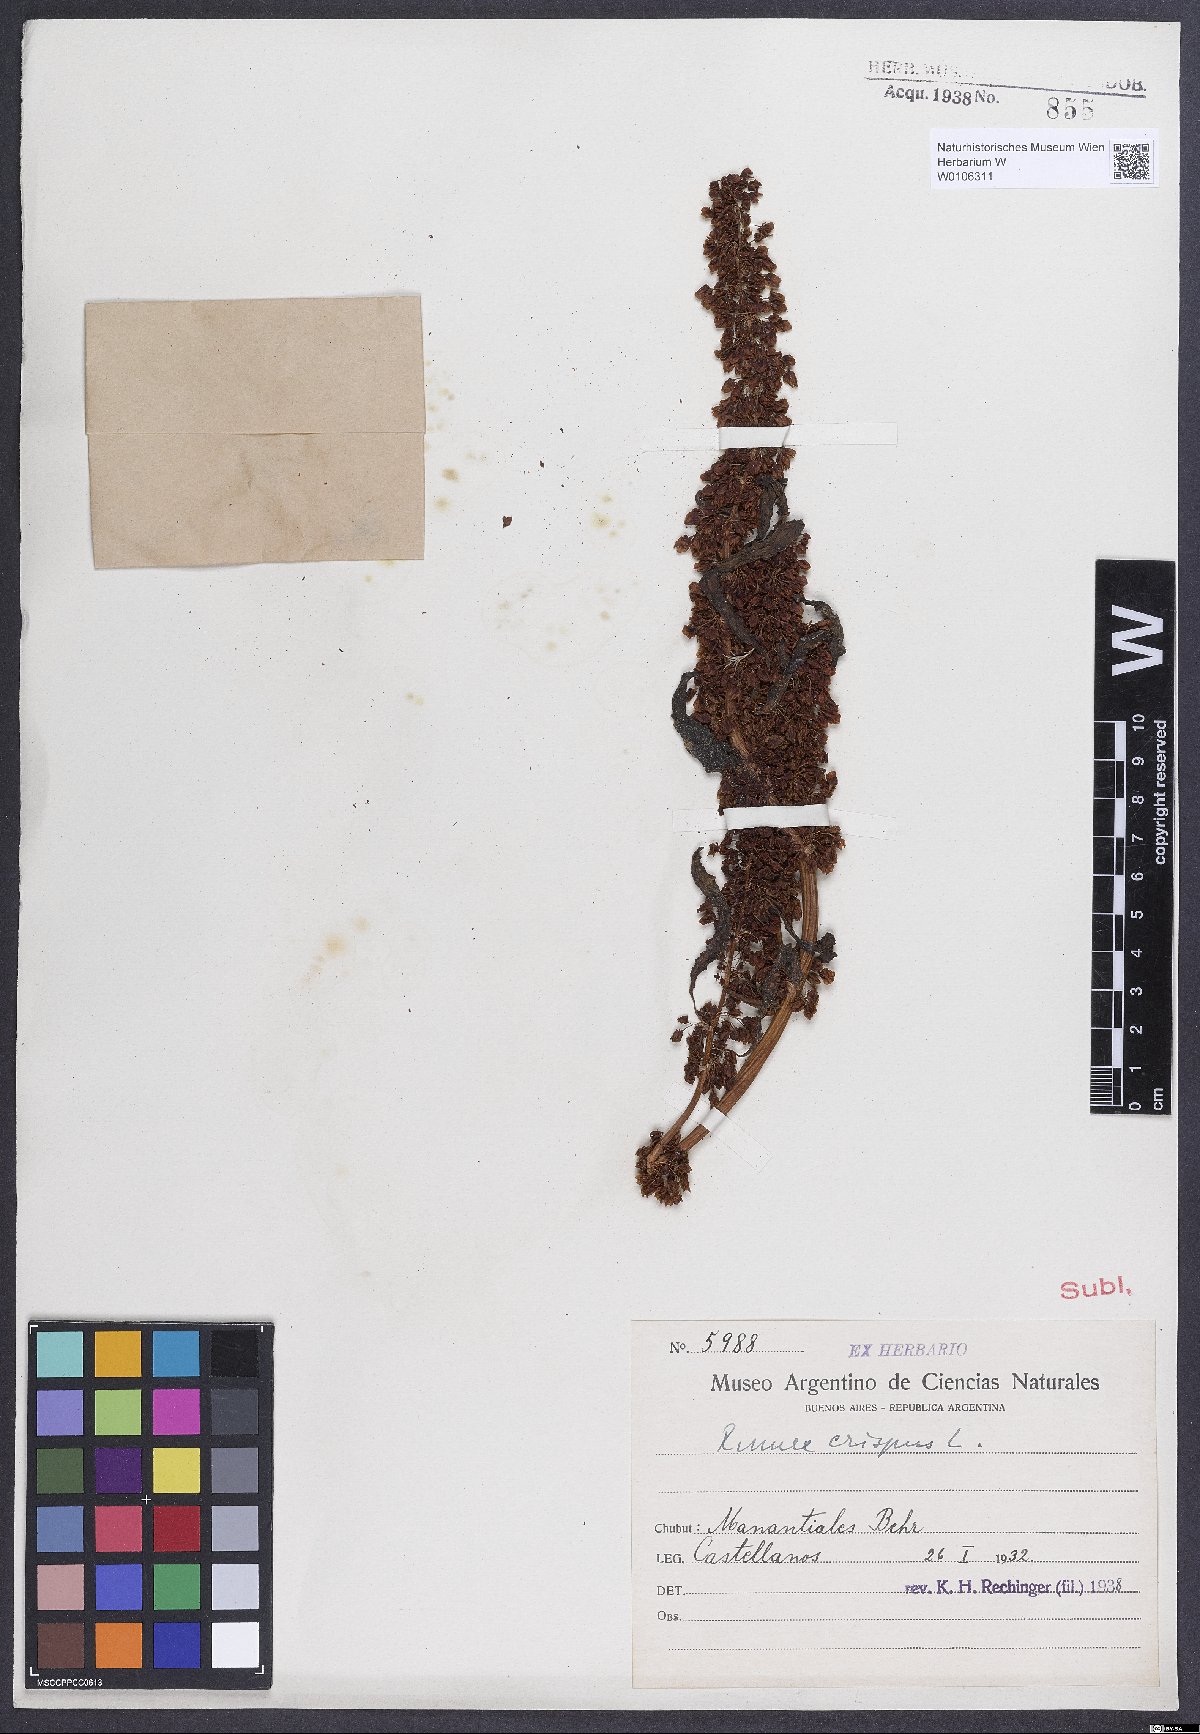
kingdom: Plantae
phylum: Tracheophyta
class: Magnoliopsida
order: Caryophyllales
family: Polygonaceae
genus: Rumex
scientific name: Rumex crispus
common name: Curled dock
